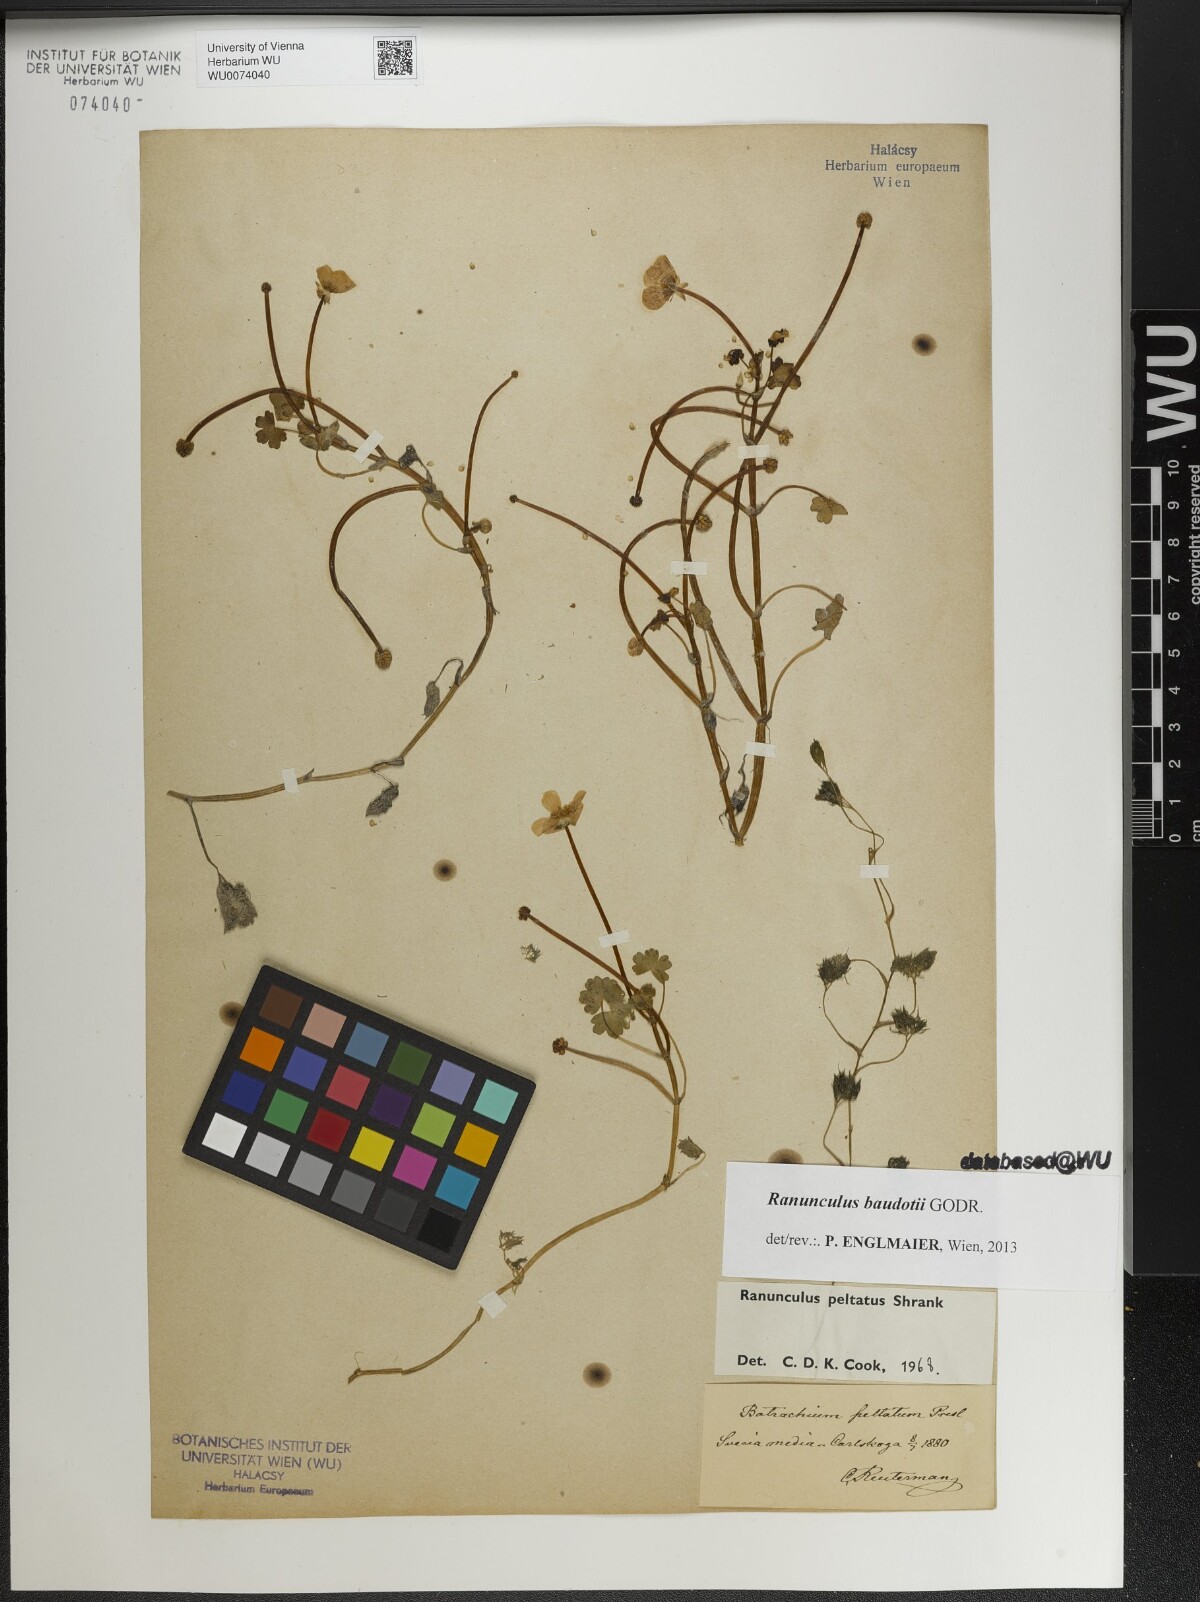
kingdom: Plantae
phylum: Tracheophyta
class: Magnoliopsida
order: Ranunculales
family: Ranunculaceae
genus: Ranunculus
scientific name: Ranunculus peltatus
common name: Pond water-crowfoot
